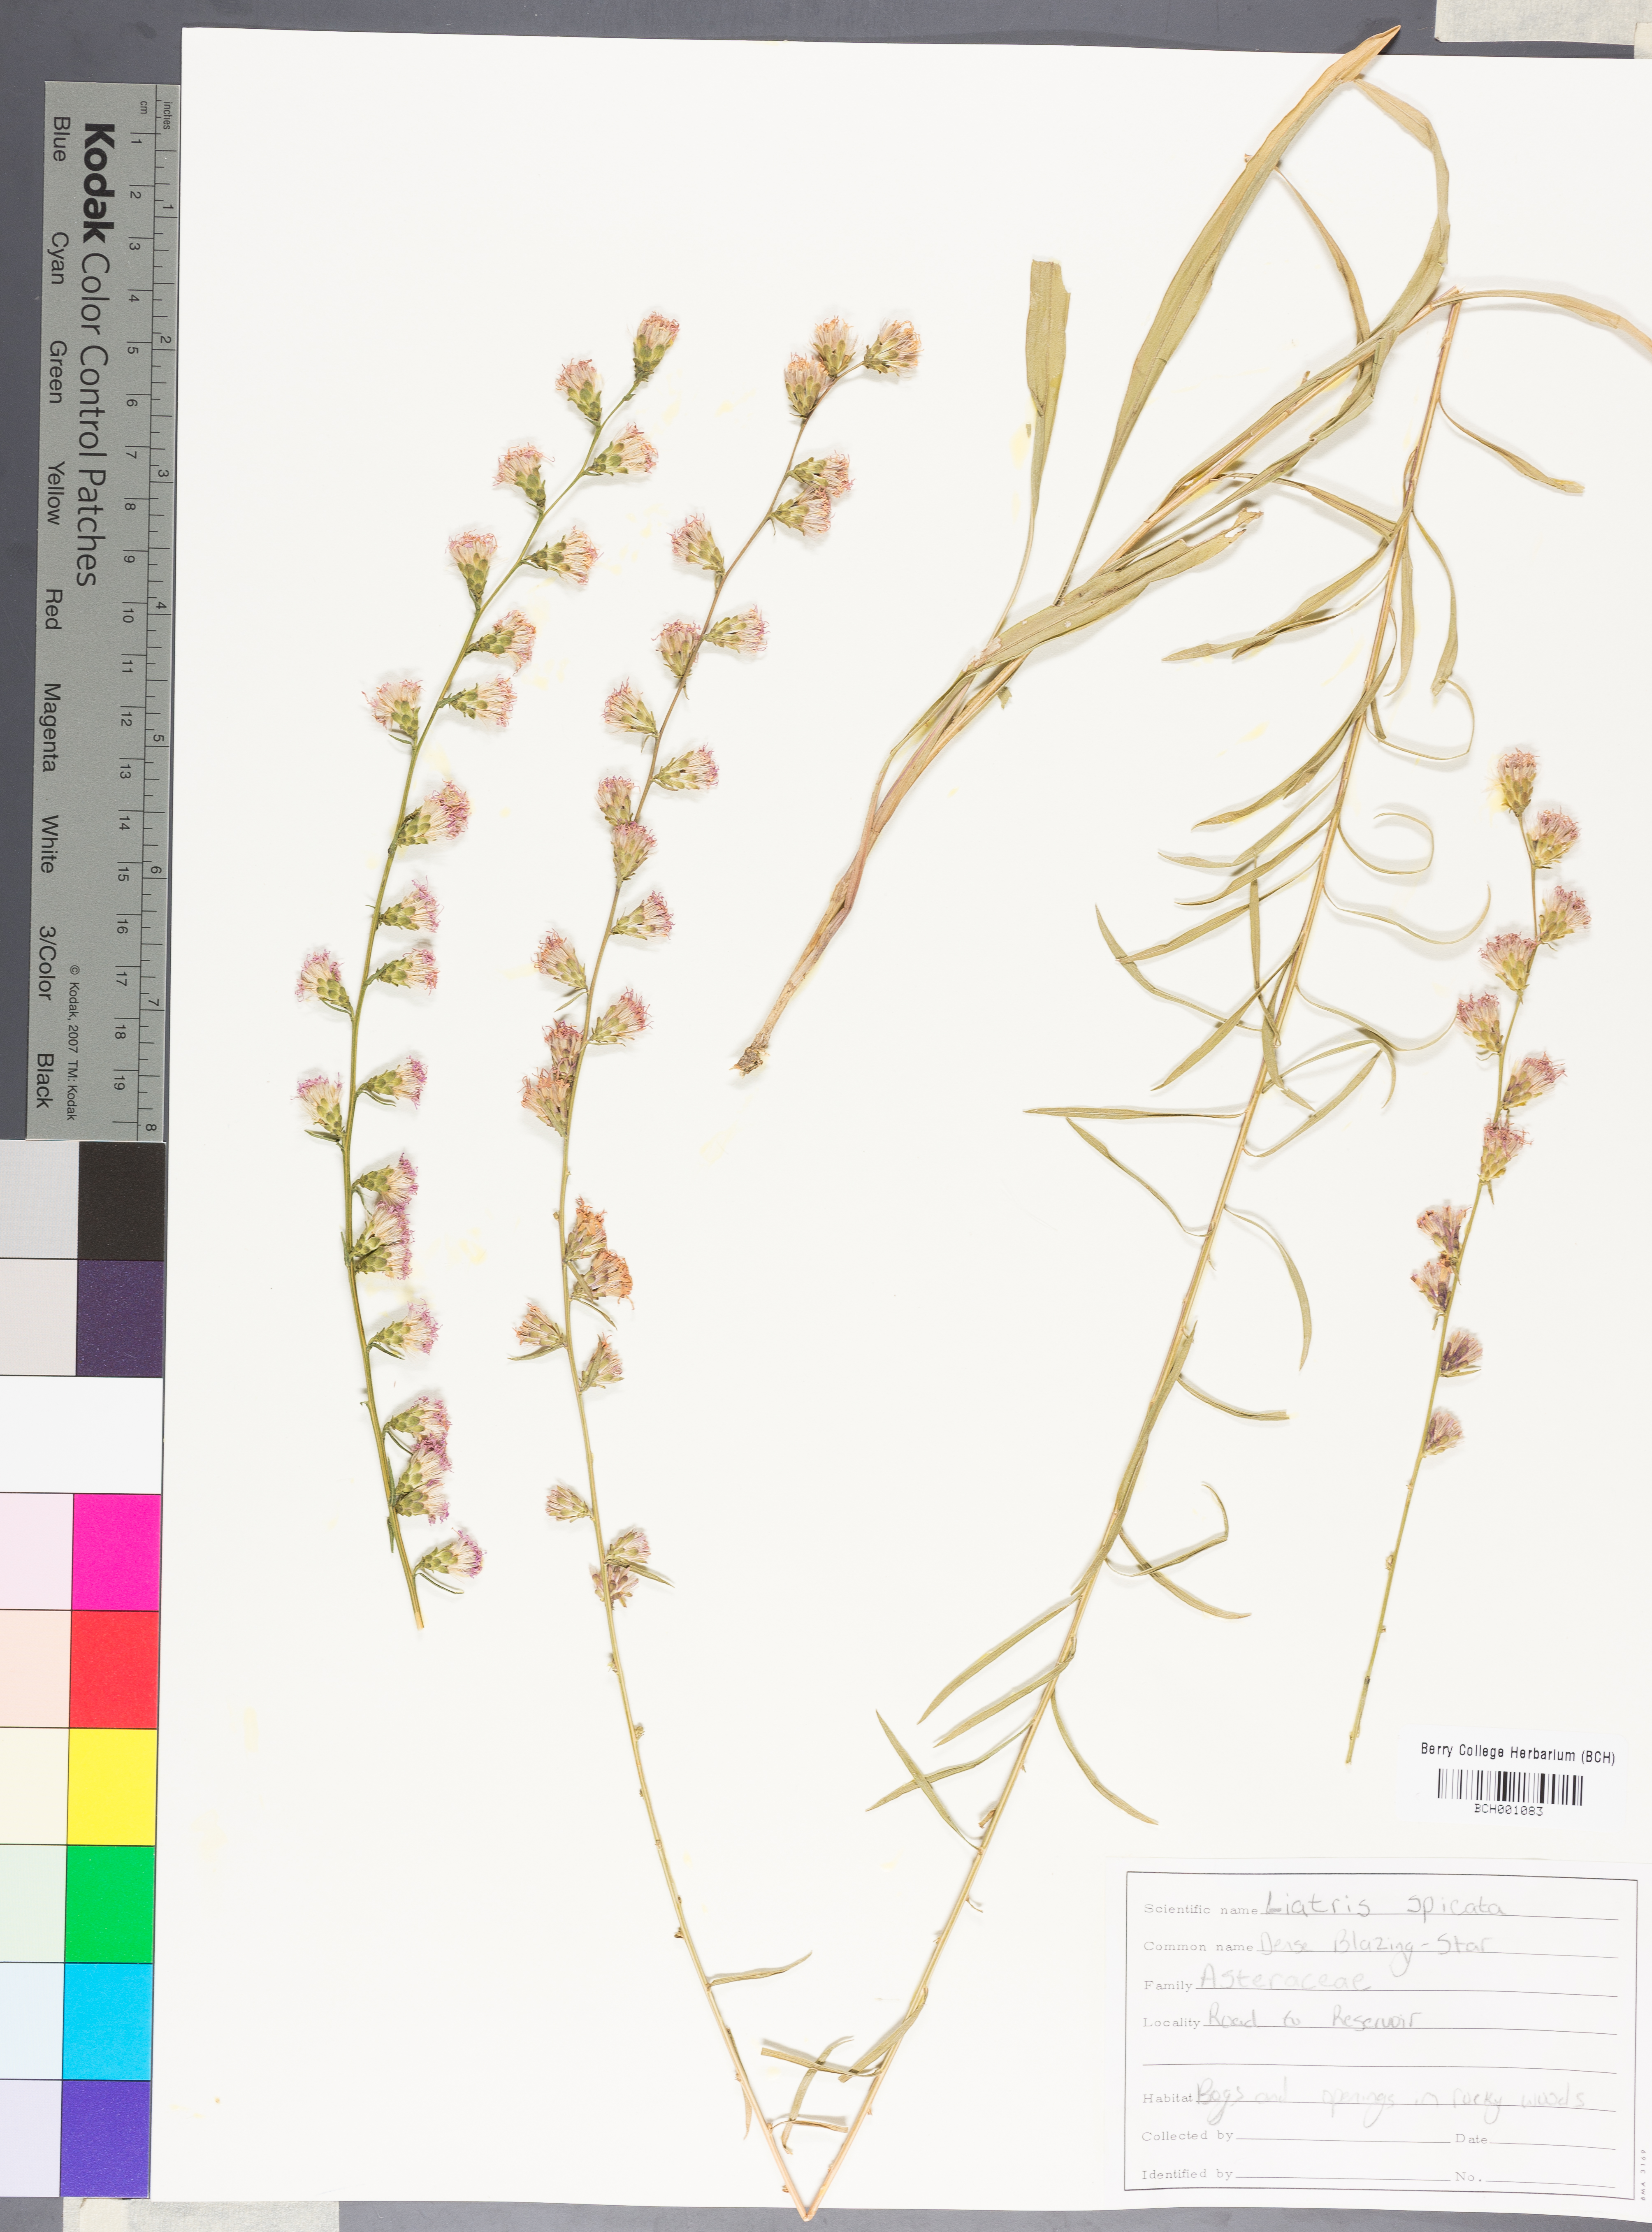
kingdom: Plantae
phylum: Tracheophyta
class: Magnoliopsida
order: Asterales
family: Asteraceae
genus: Liatris
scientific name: Liatris spicata
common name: Florist gayfeather
